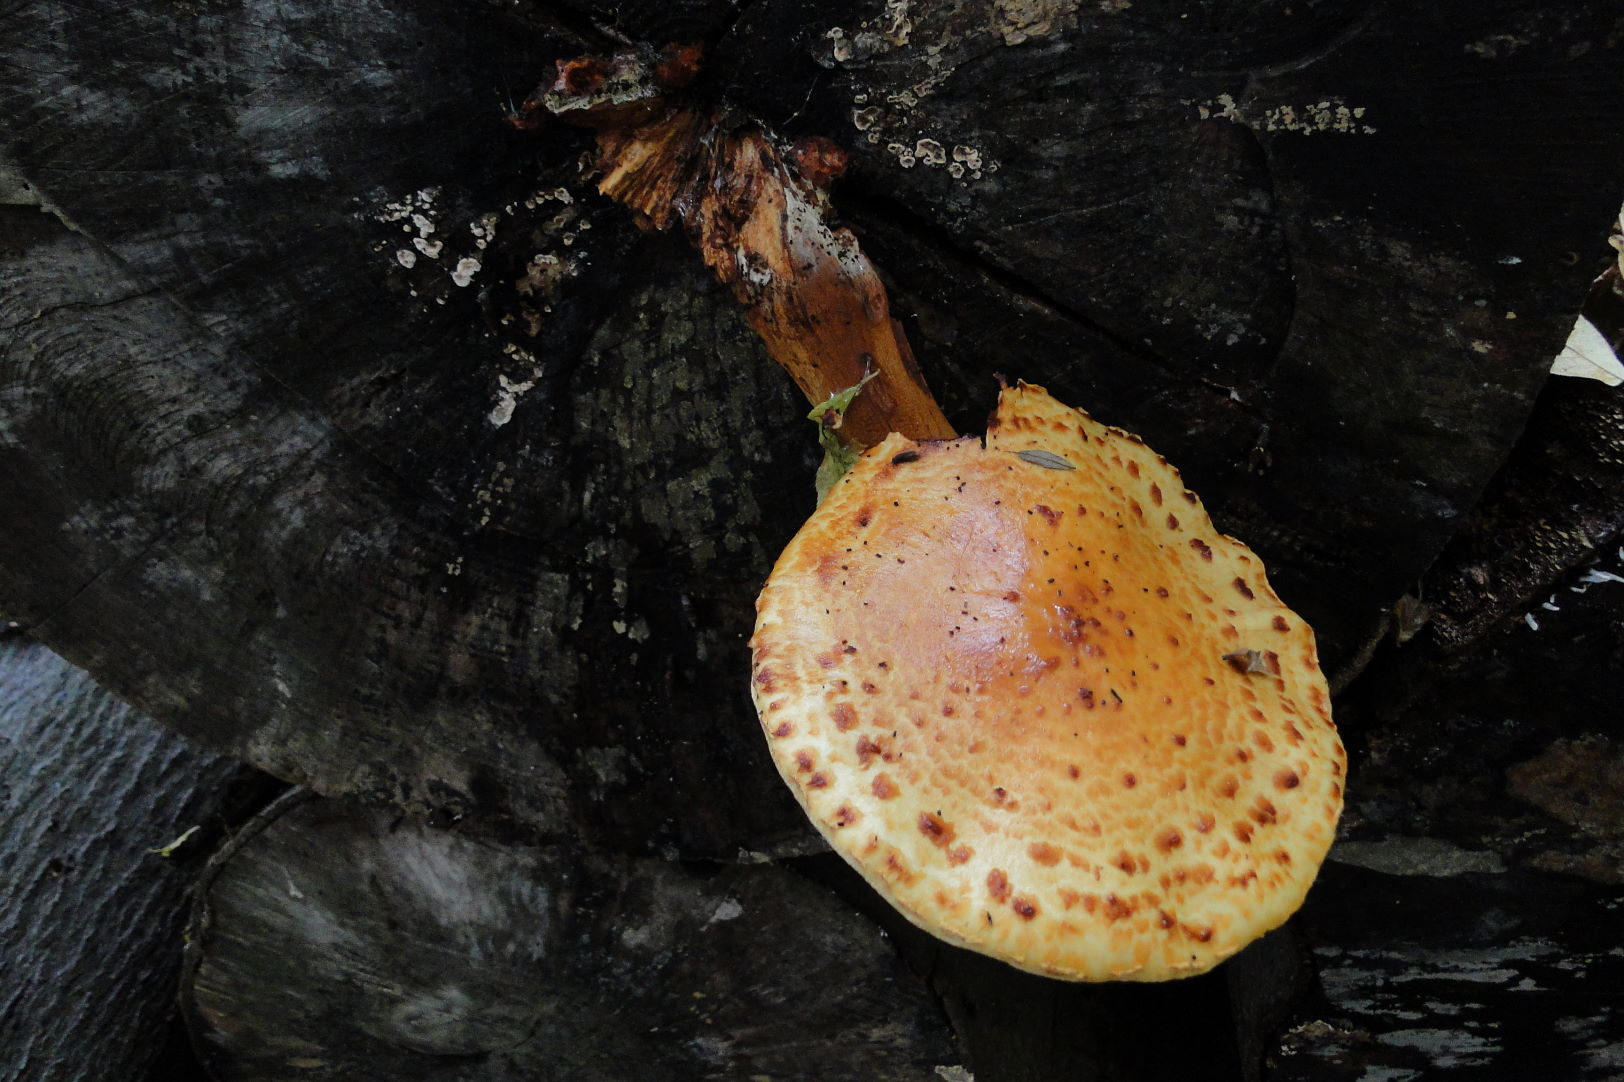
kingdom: Fungi
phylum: Basidiomycota
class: Agaricomycetes
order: Agaricales
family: Strophariaceae
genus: Pholiota
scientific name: Pholiota adiposa
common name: højtsiddende skælhat
